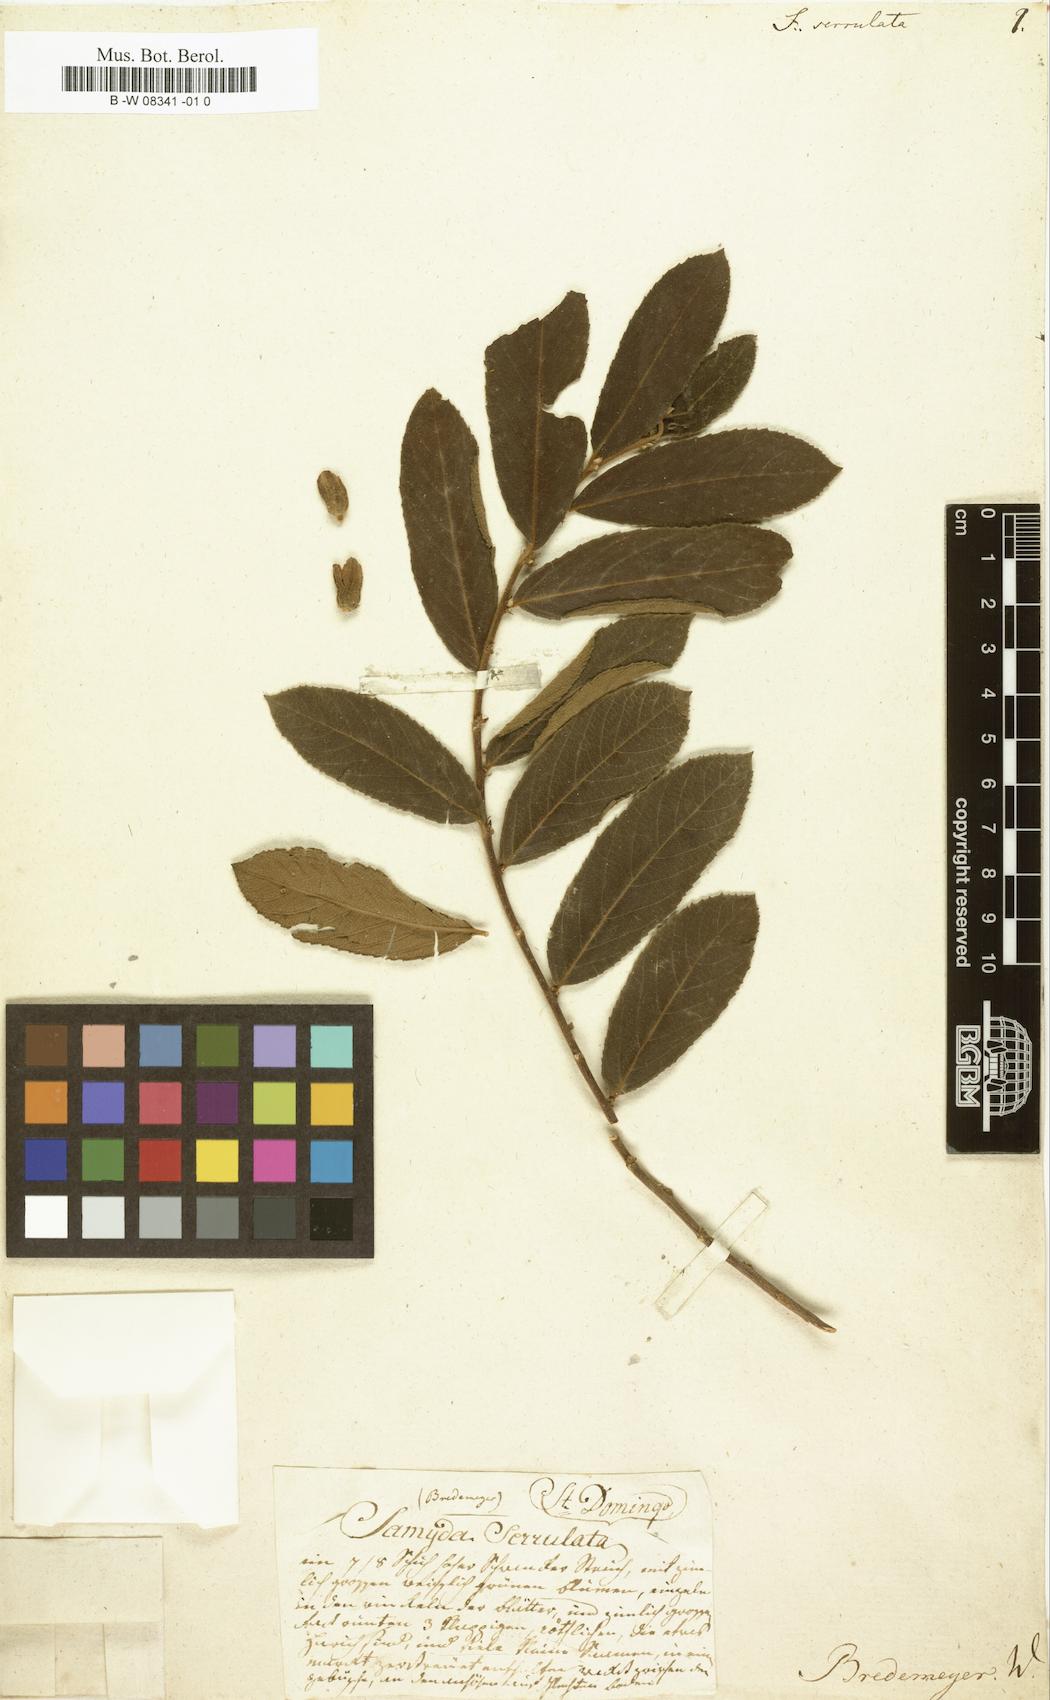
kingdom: Plantae
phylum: Tracheophyta
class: Magnoliopsida
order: Malpighiales
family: Salicaceae
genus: Casearia
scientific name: Casearia
